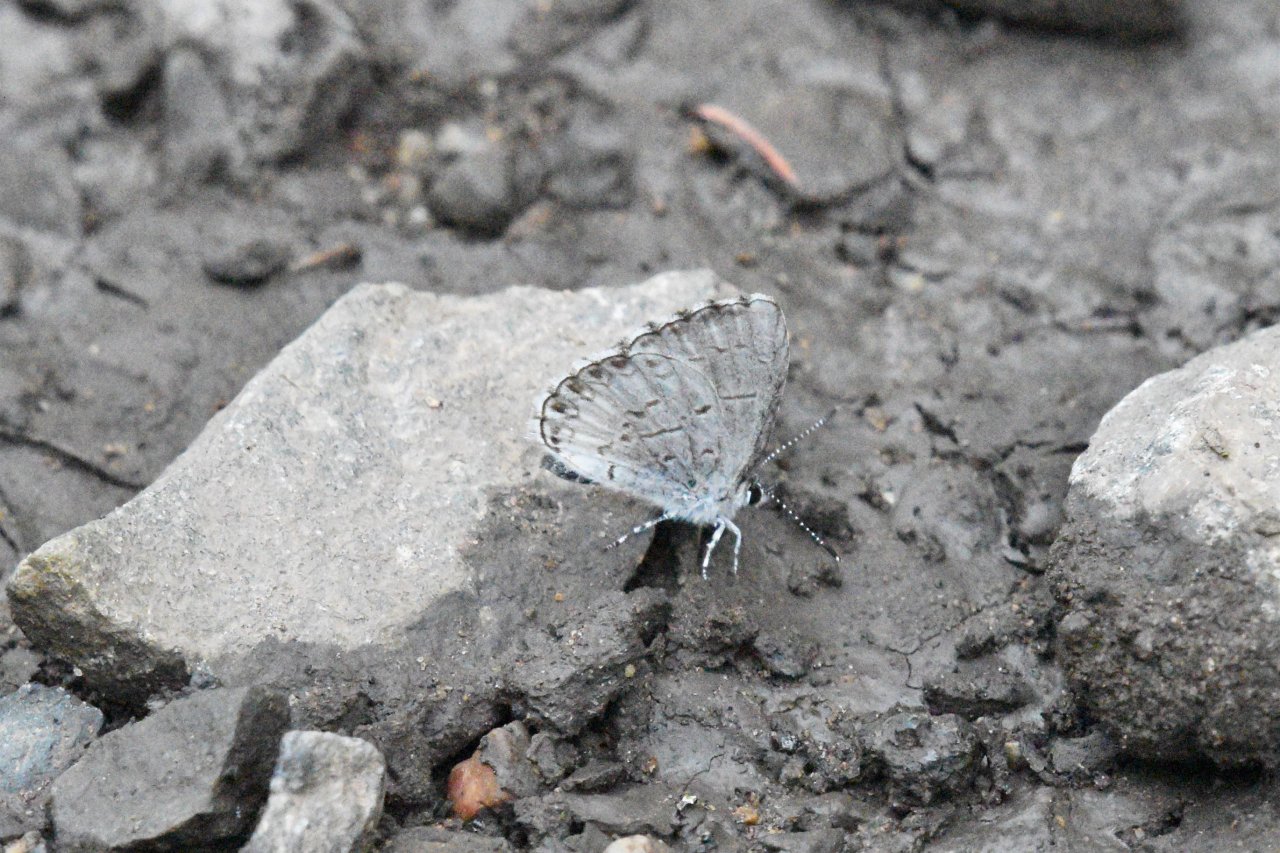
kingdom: Animalia
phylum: Arthropoda
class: Insecta
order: Lepidoptera
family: Lycaenidae
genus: Celastrina
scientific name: Celastrina lucia
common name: Northern Spring Azure
